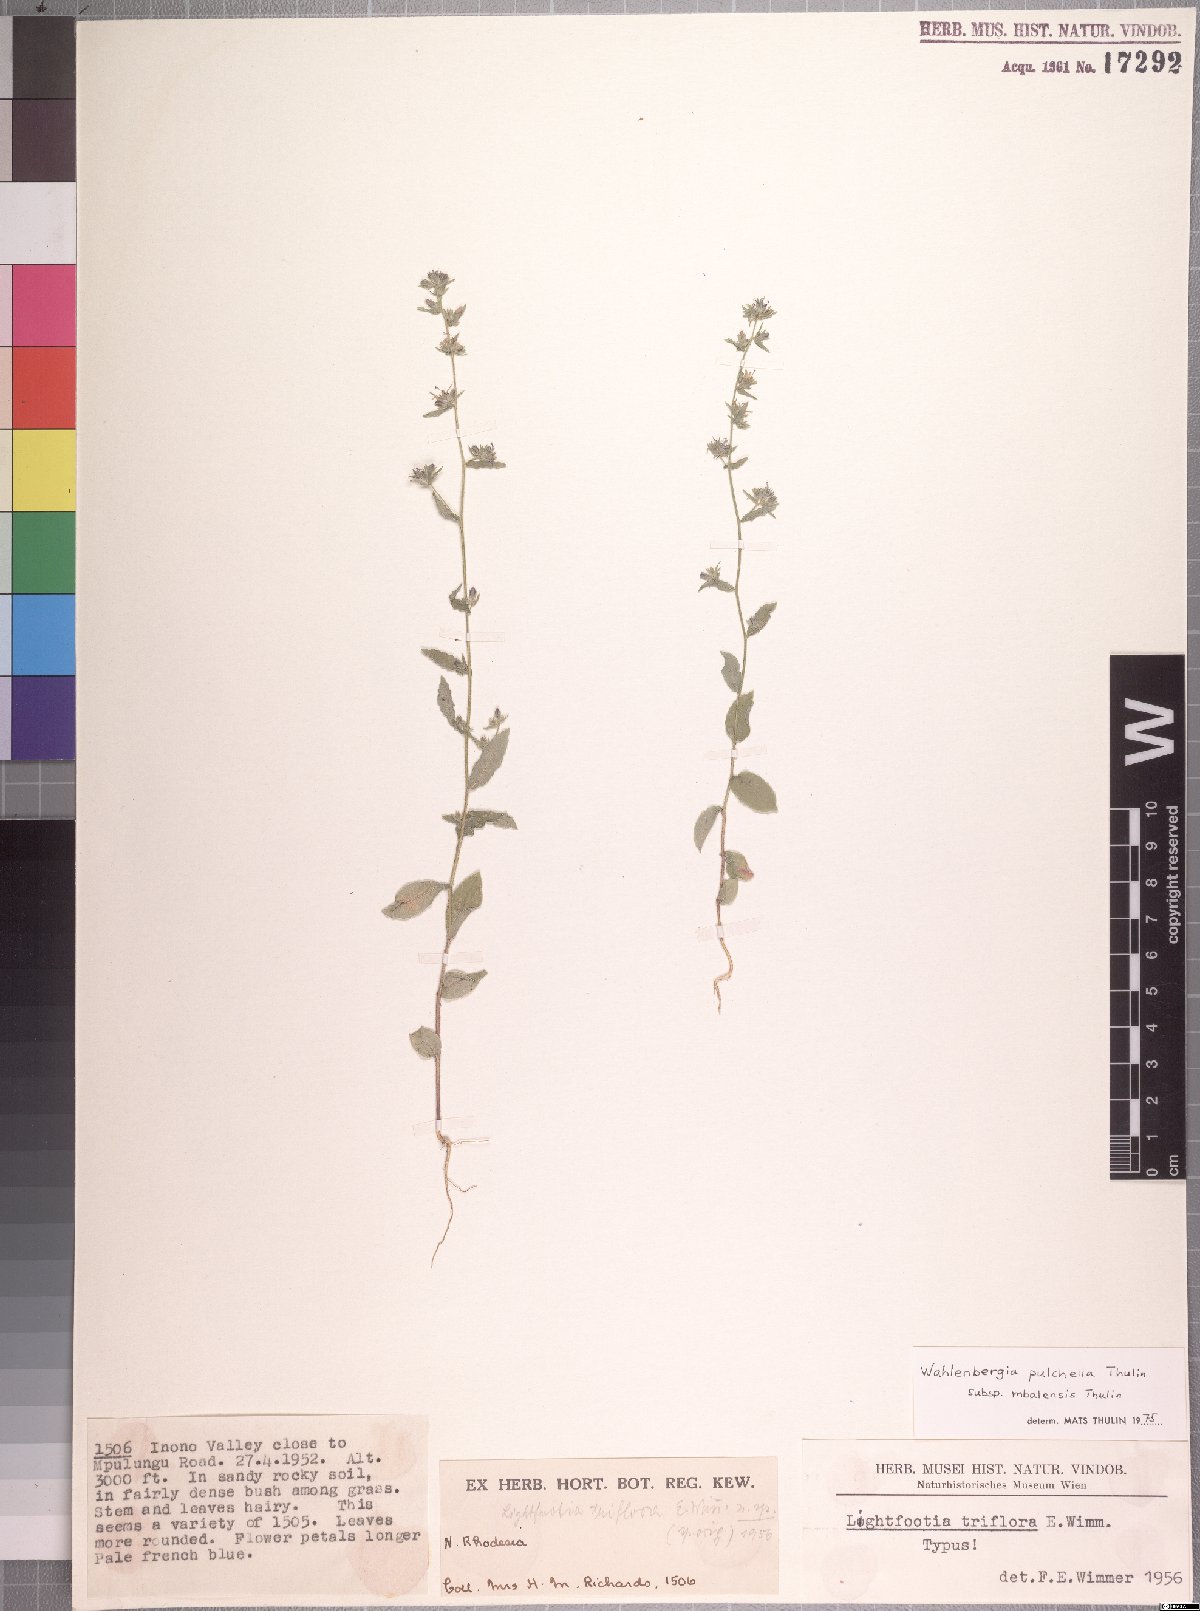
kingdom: Plantae
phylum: Tracheophyta
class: Magnoliopsida
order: Asterales
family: Campanulaceae
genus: Wahlenbergia
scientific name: Wahlenbergia pulchella
